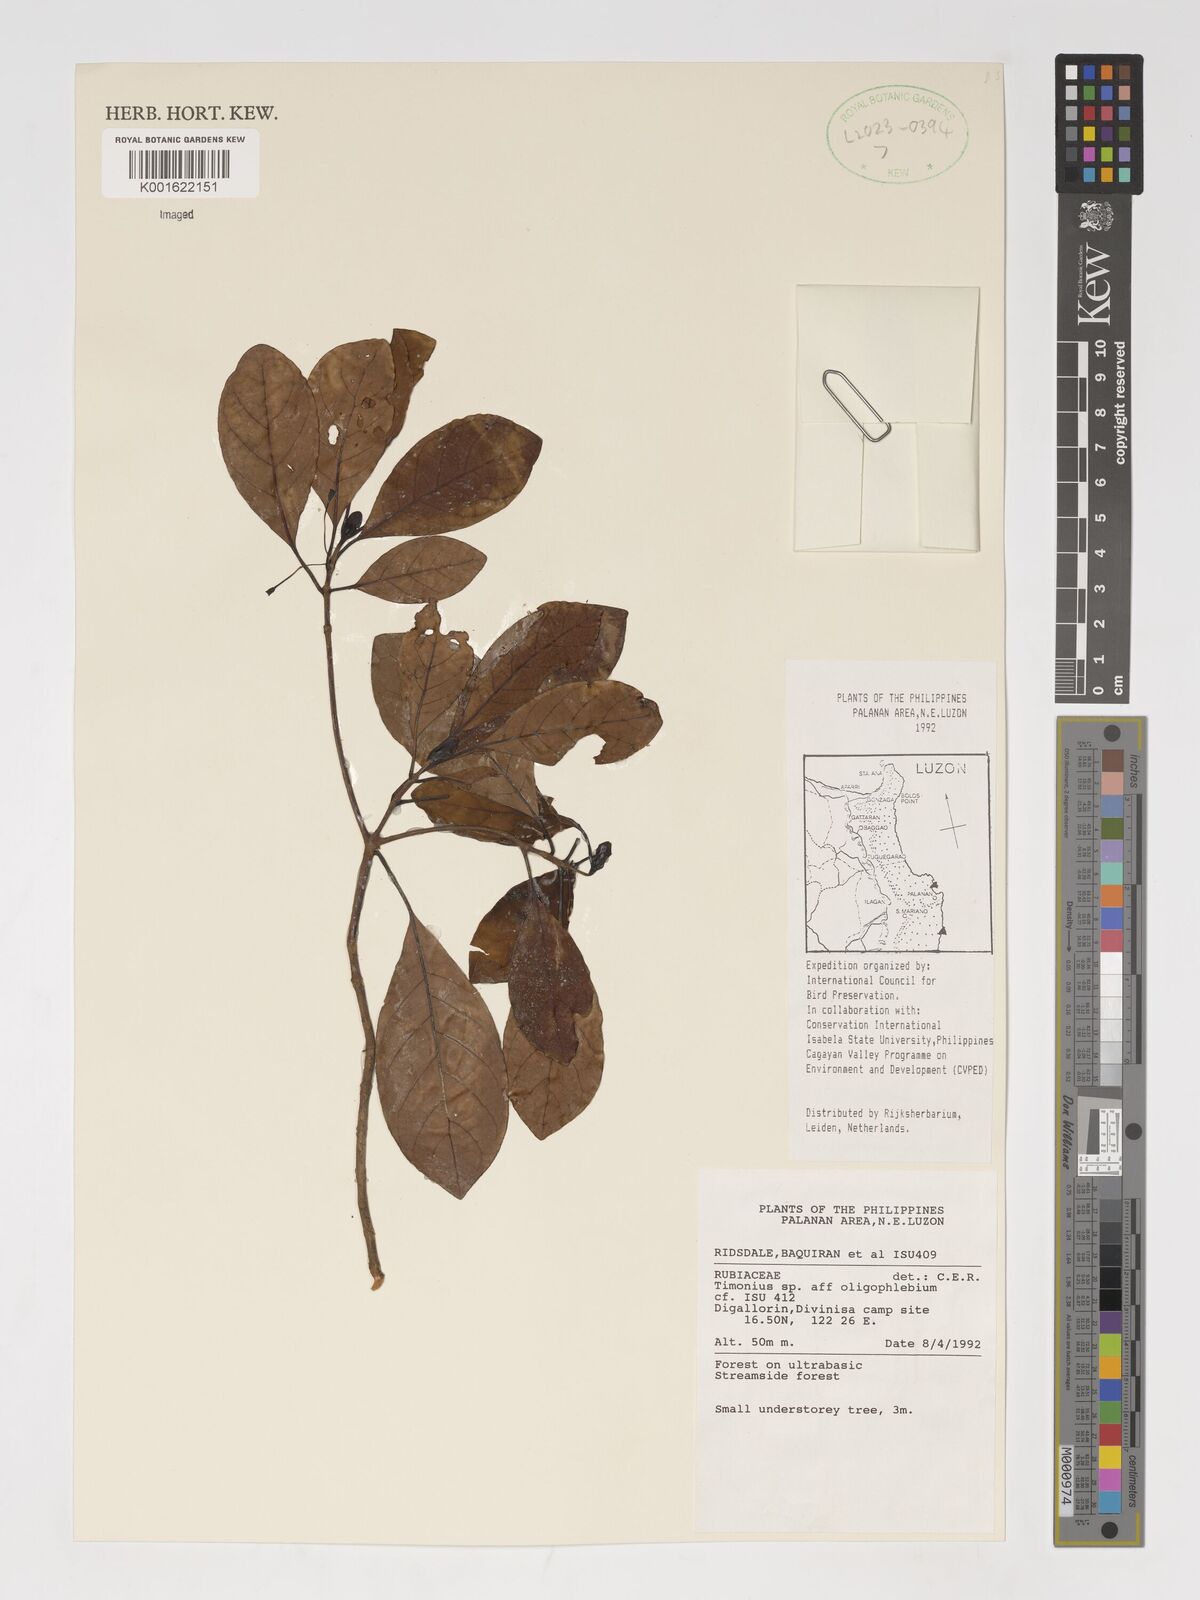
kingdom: Plantae
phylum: Tracheophyta
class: Magnoliopsida
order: Gentianales
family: Rubiaceae
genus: Timonius
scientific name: Timonius
